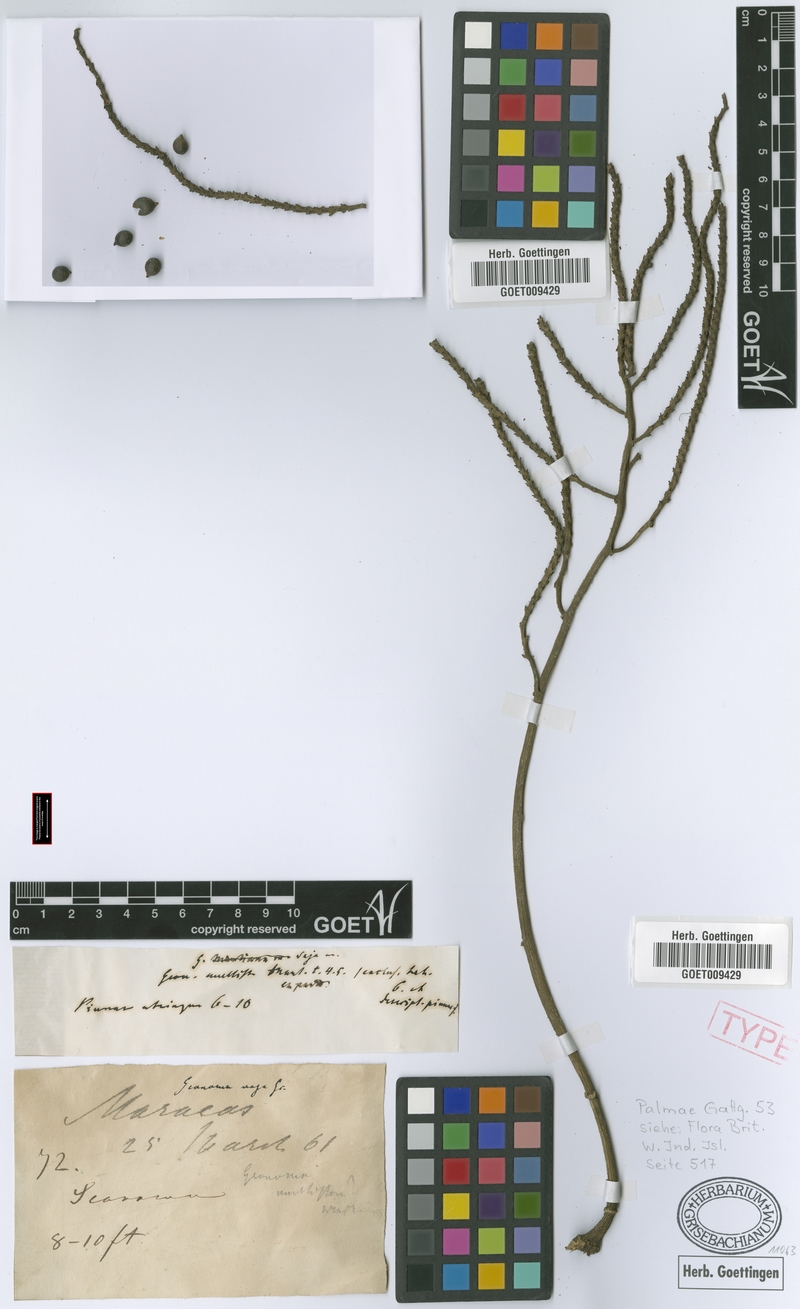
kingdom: Plantae
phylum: Tracheophyta
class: Liliopsida
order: Arecales
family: Arecaceae
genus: Geonoma
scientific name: Geonoma pinnatifrons
